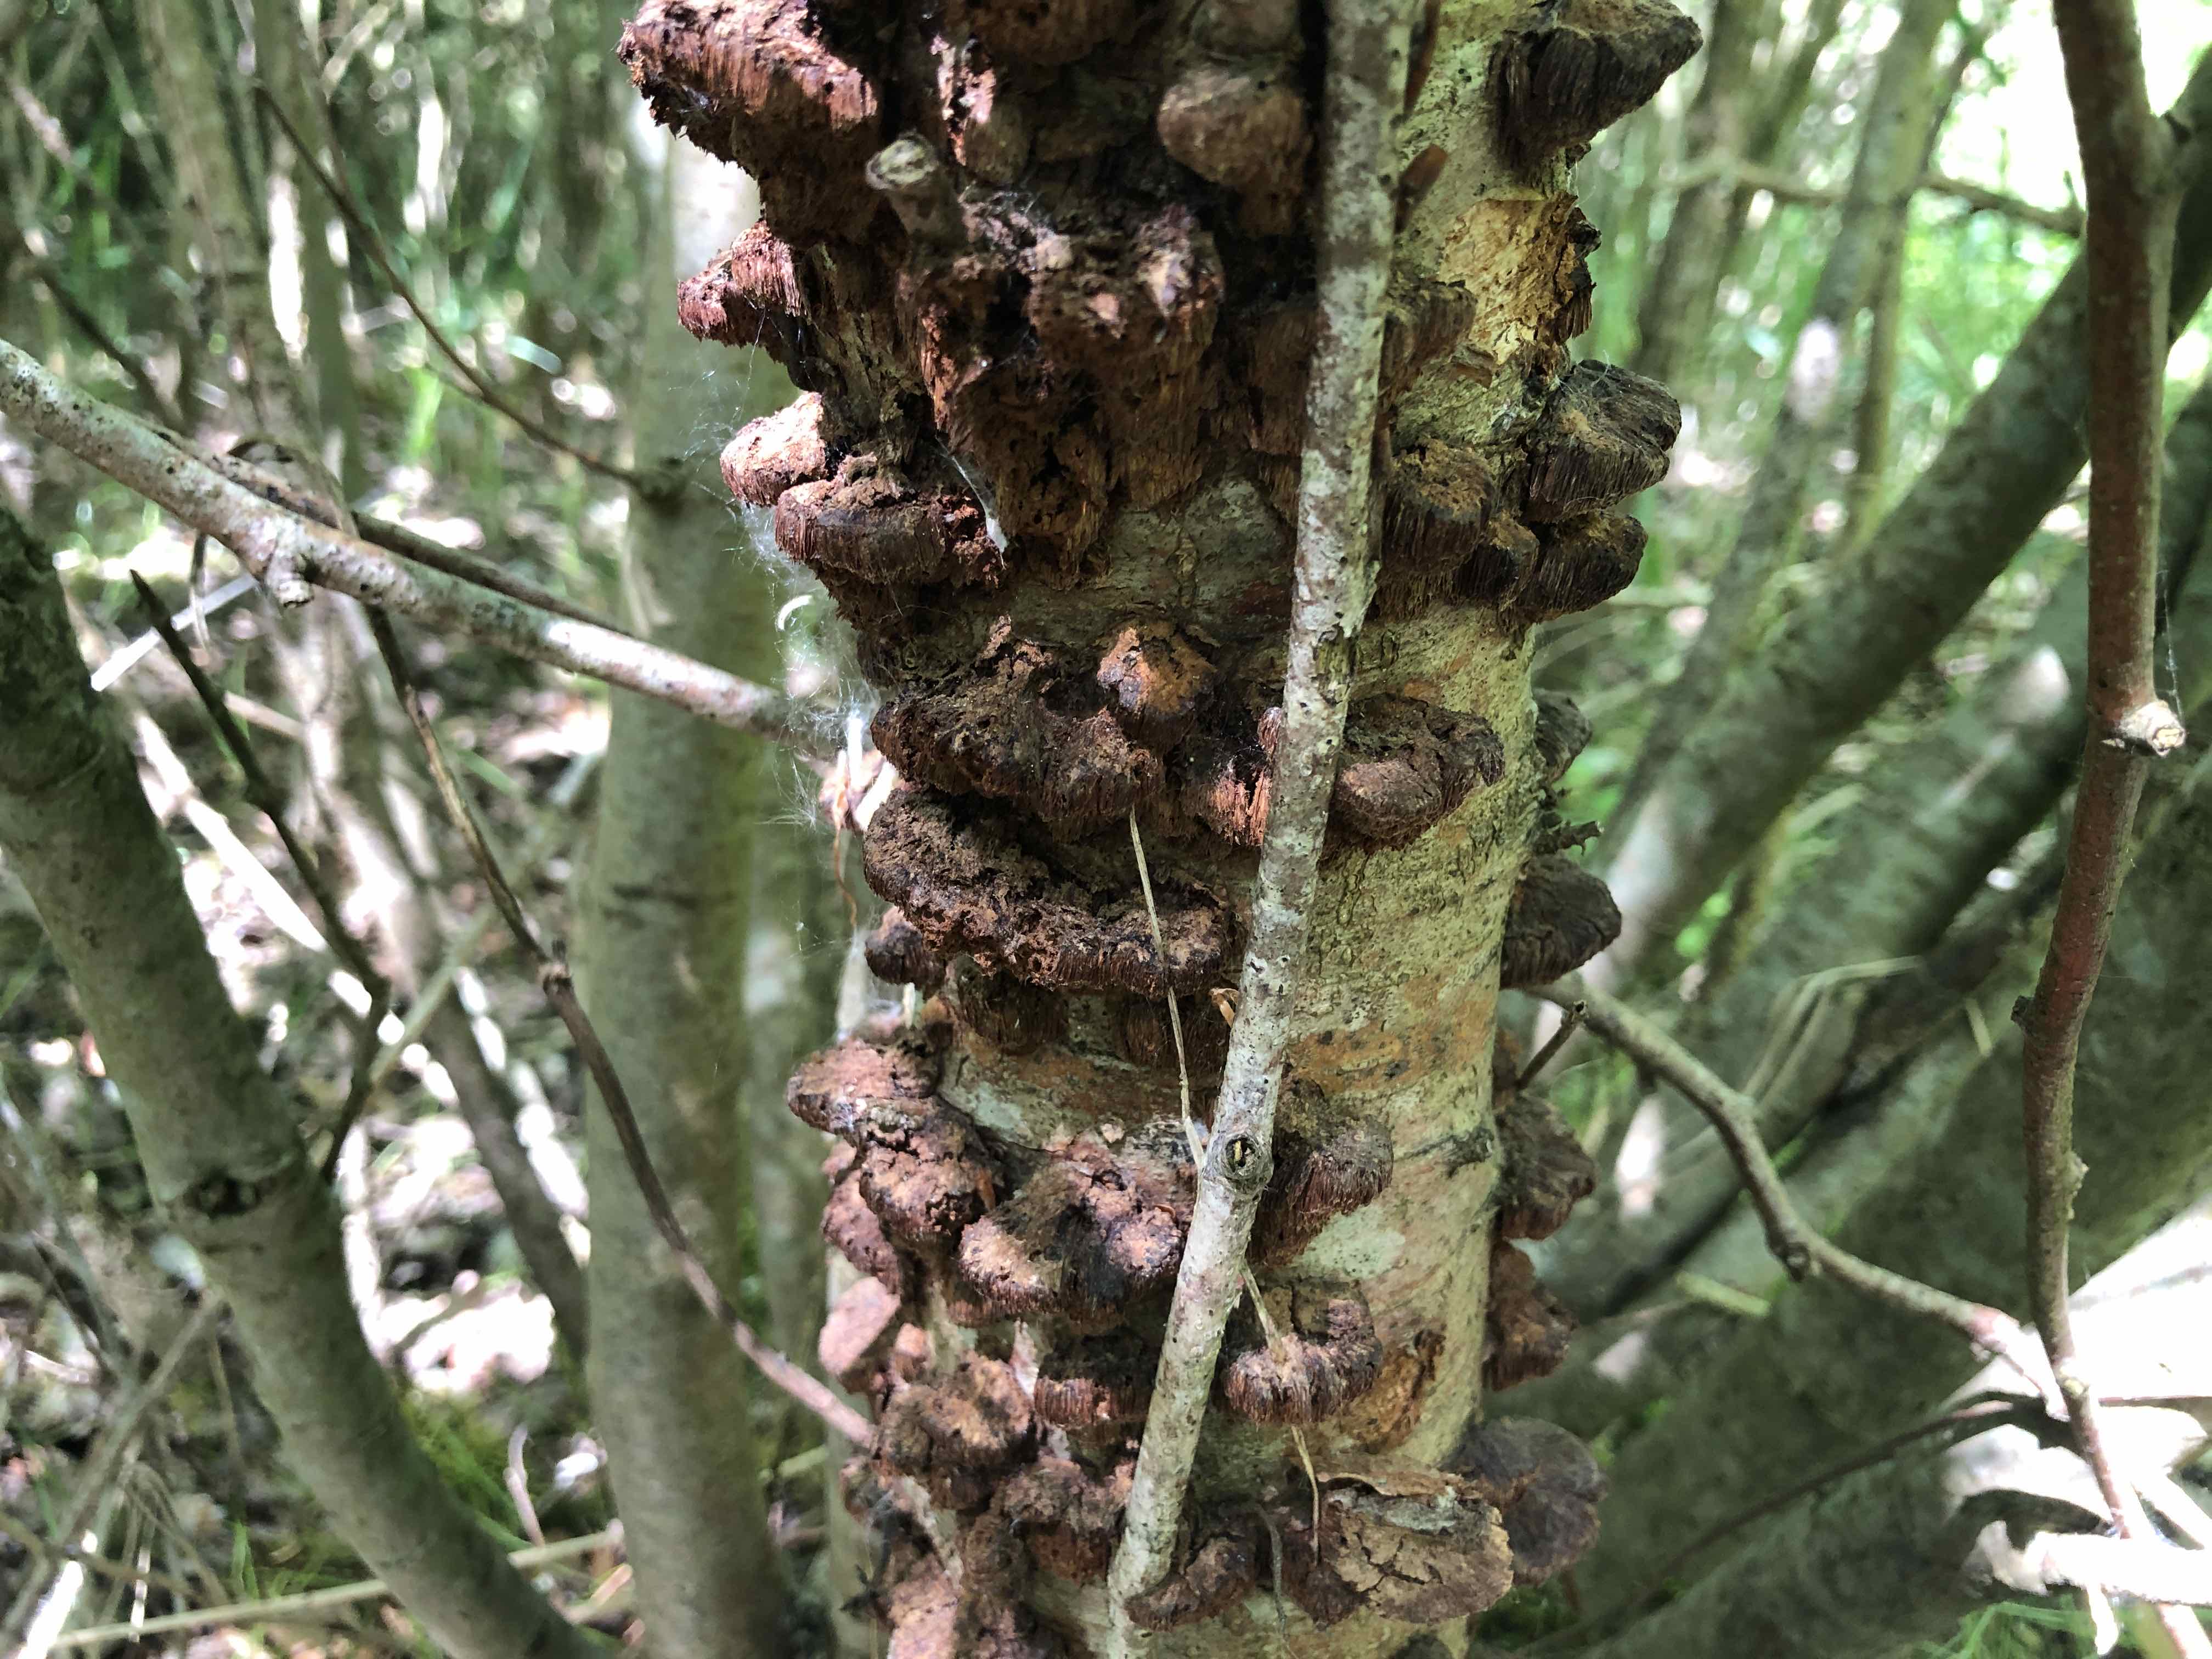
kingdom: Fungi
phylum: Basidiomycota
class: Agaricomycetes
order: Hymenochaetales
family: Hymenochaetaceae
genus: Xanthoporia
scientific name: Xanthoporia radiata
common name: elle-spejlporesvamp
